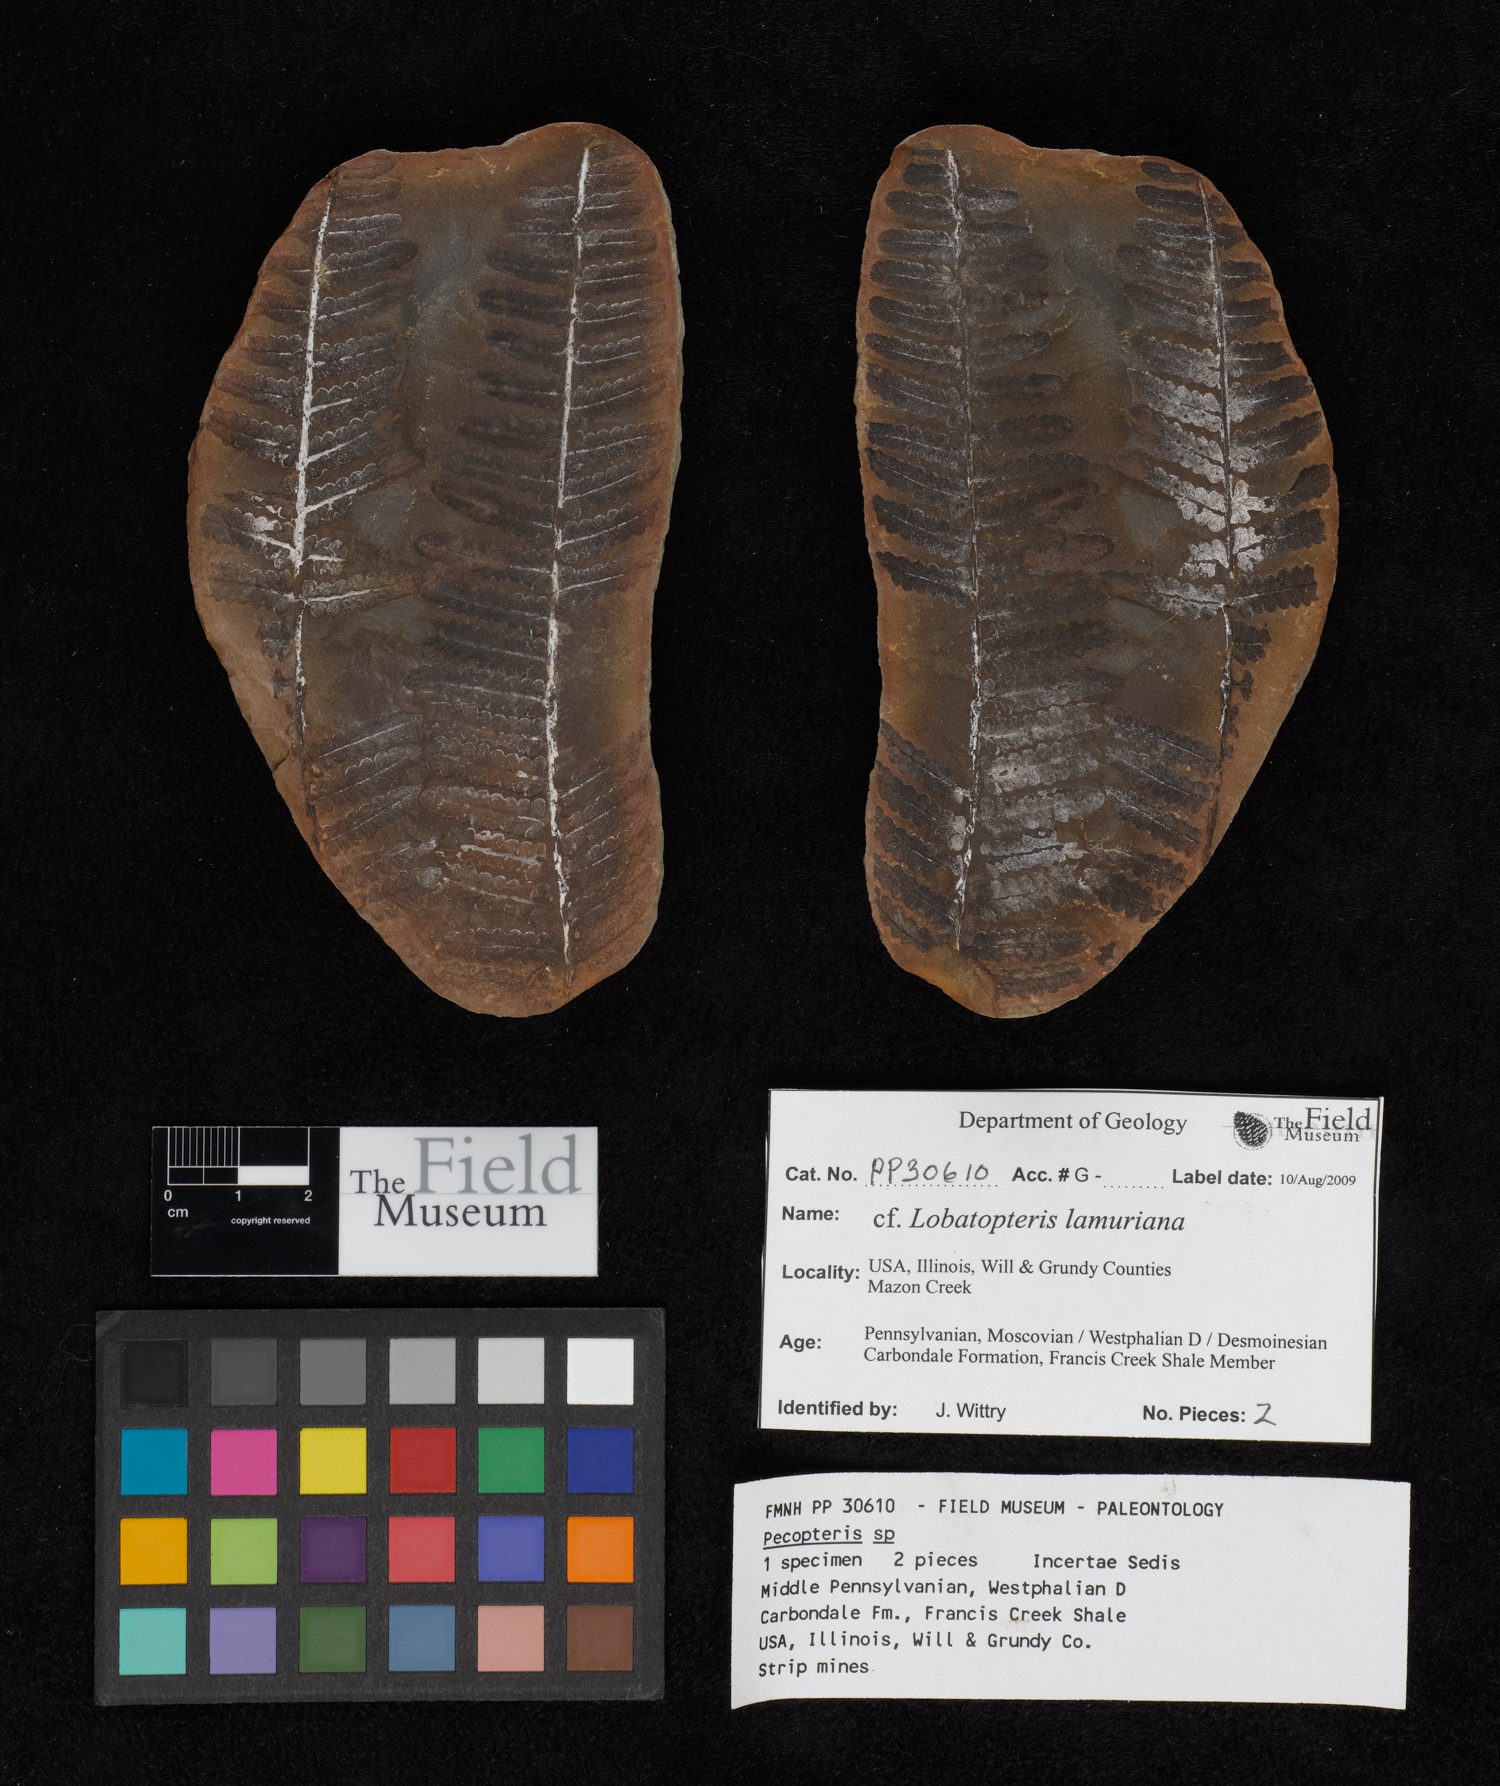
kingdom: Plantae
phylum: Tracheophyta
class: Polypodiopsida
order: Marattiales
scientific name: Marattiales
